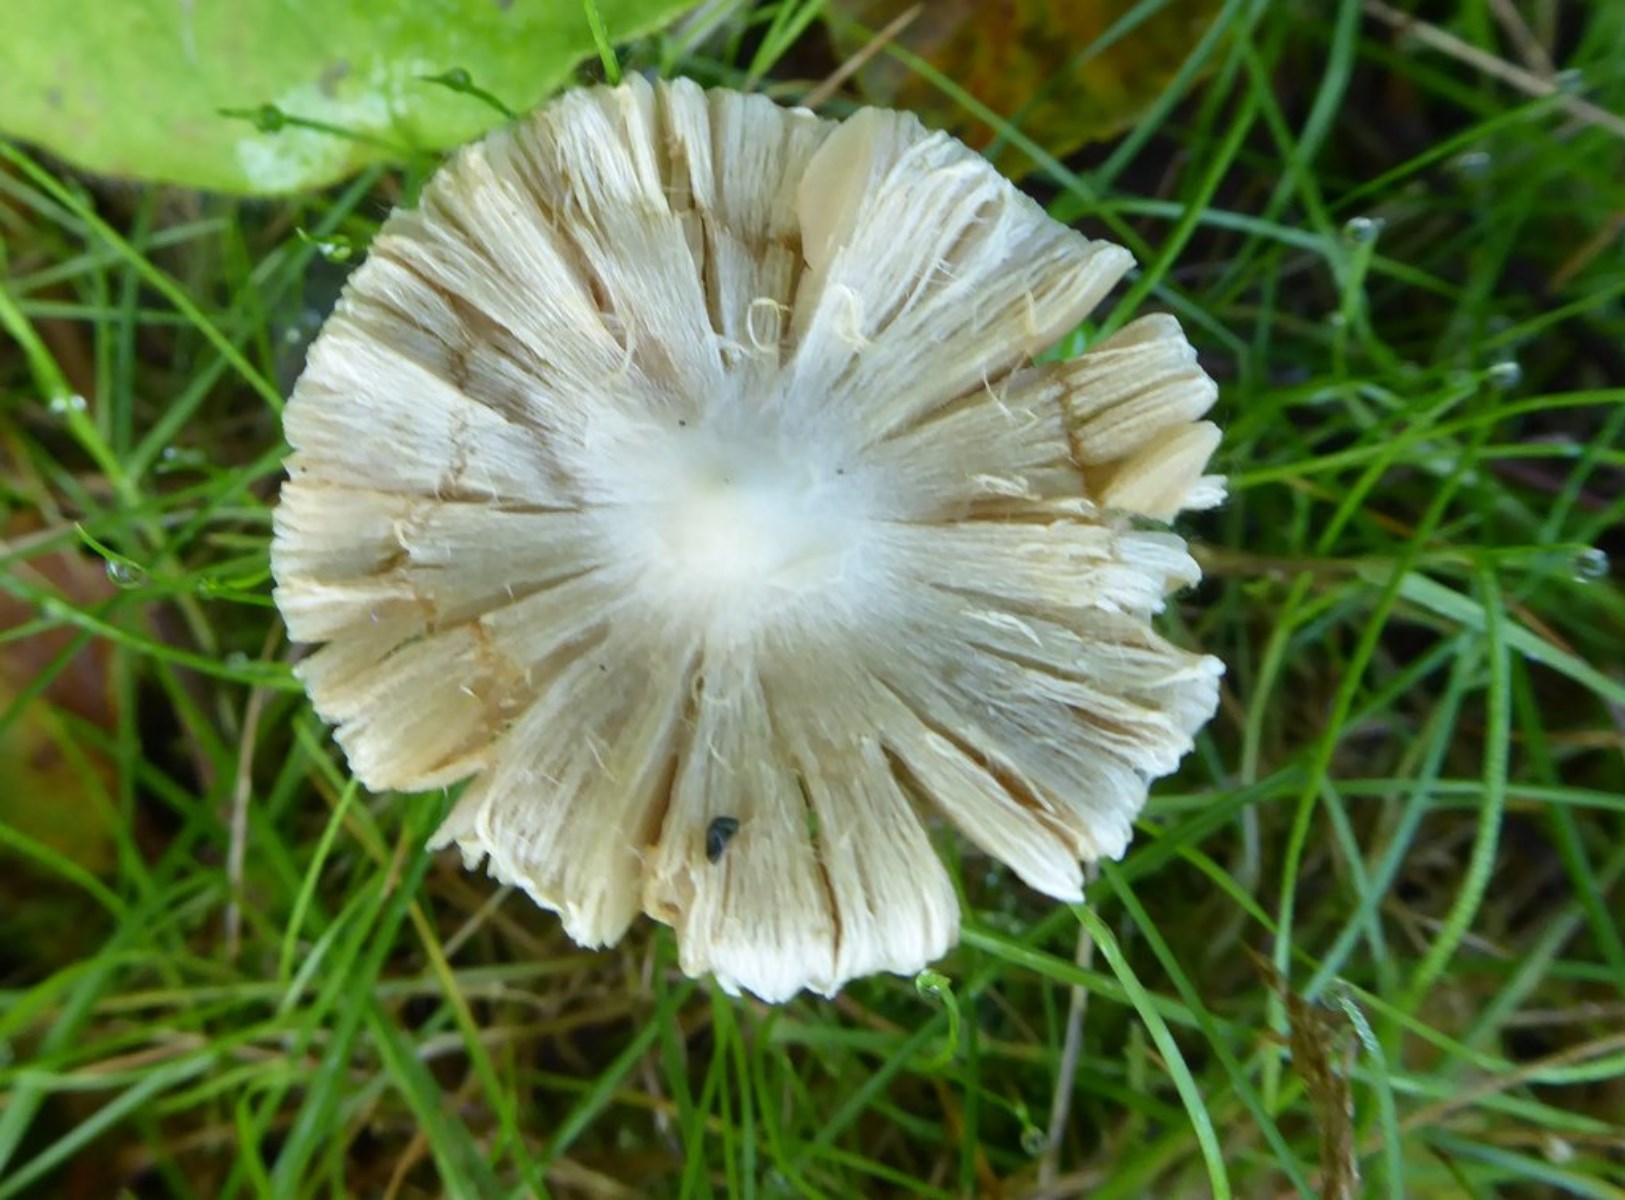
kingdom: Fungi
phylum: Basidiomycota
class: Agaricomycetes
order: Agaricales
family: Inocybaceae
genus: Inocybe
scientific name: Inocybe
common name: almindelig trævlhat
